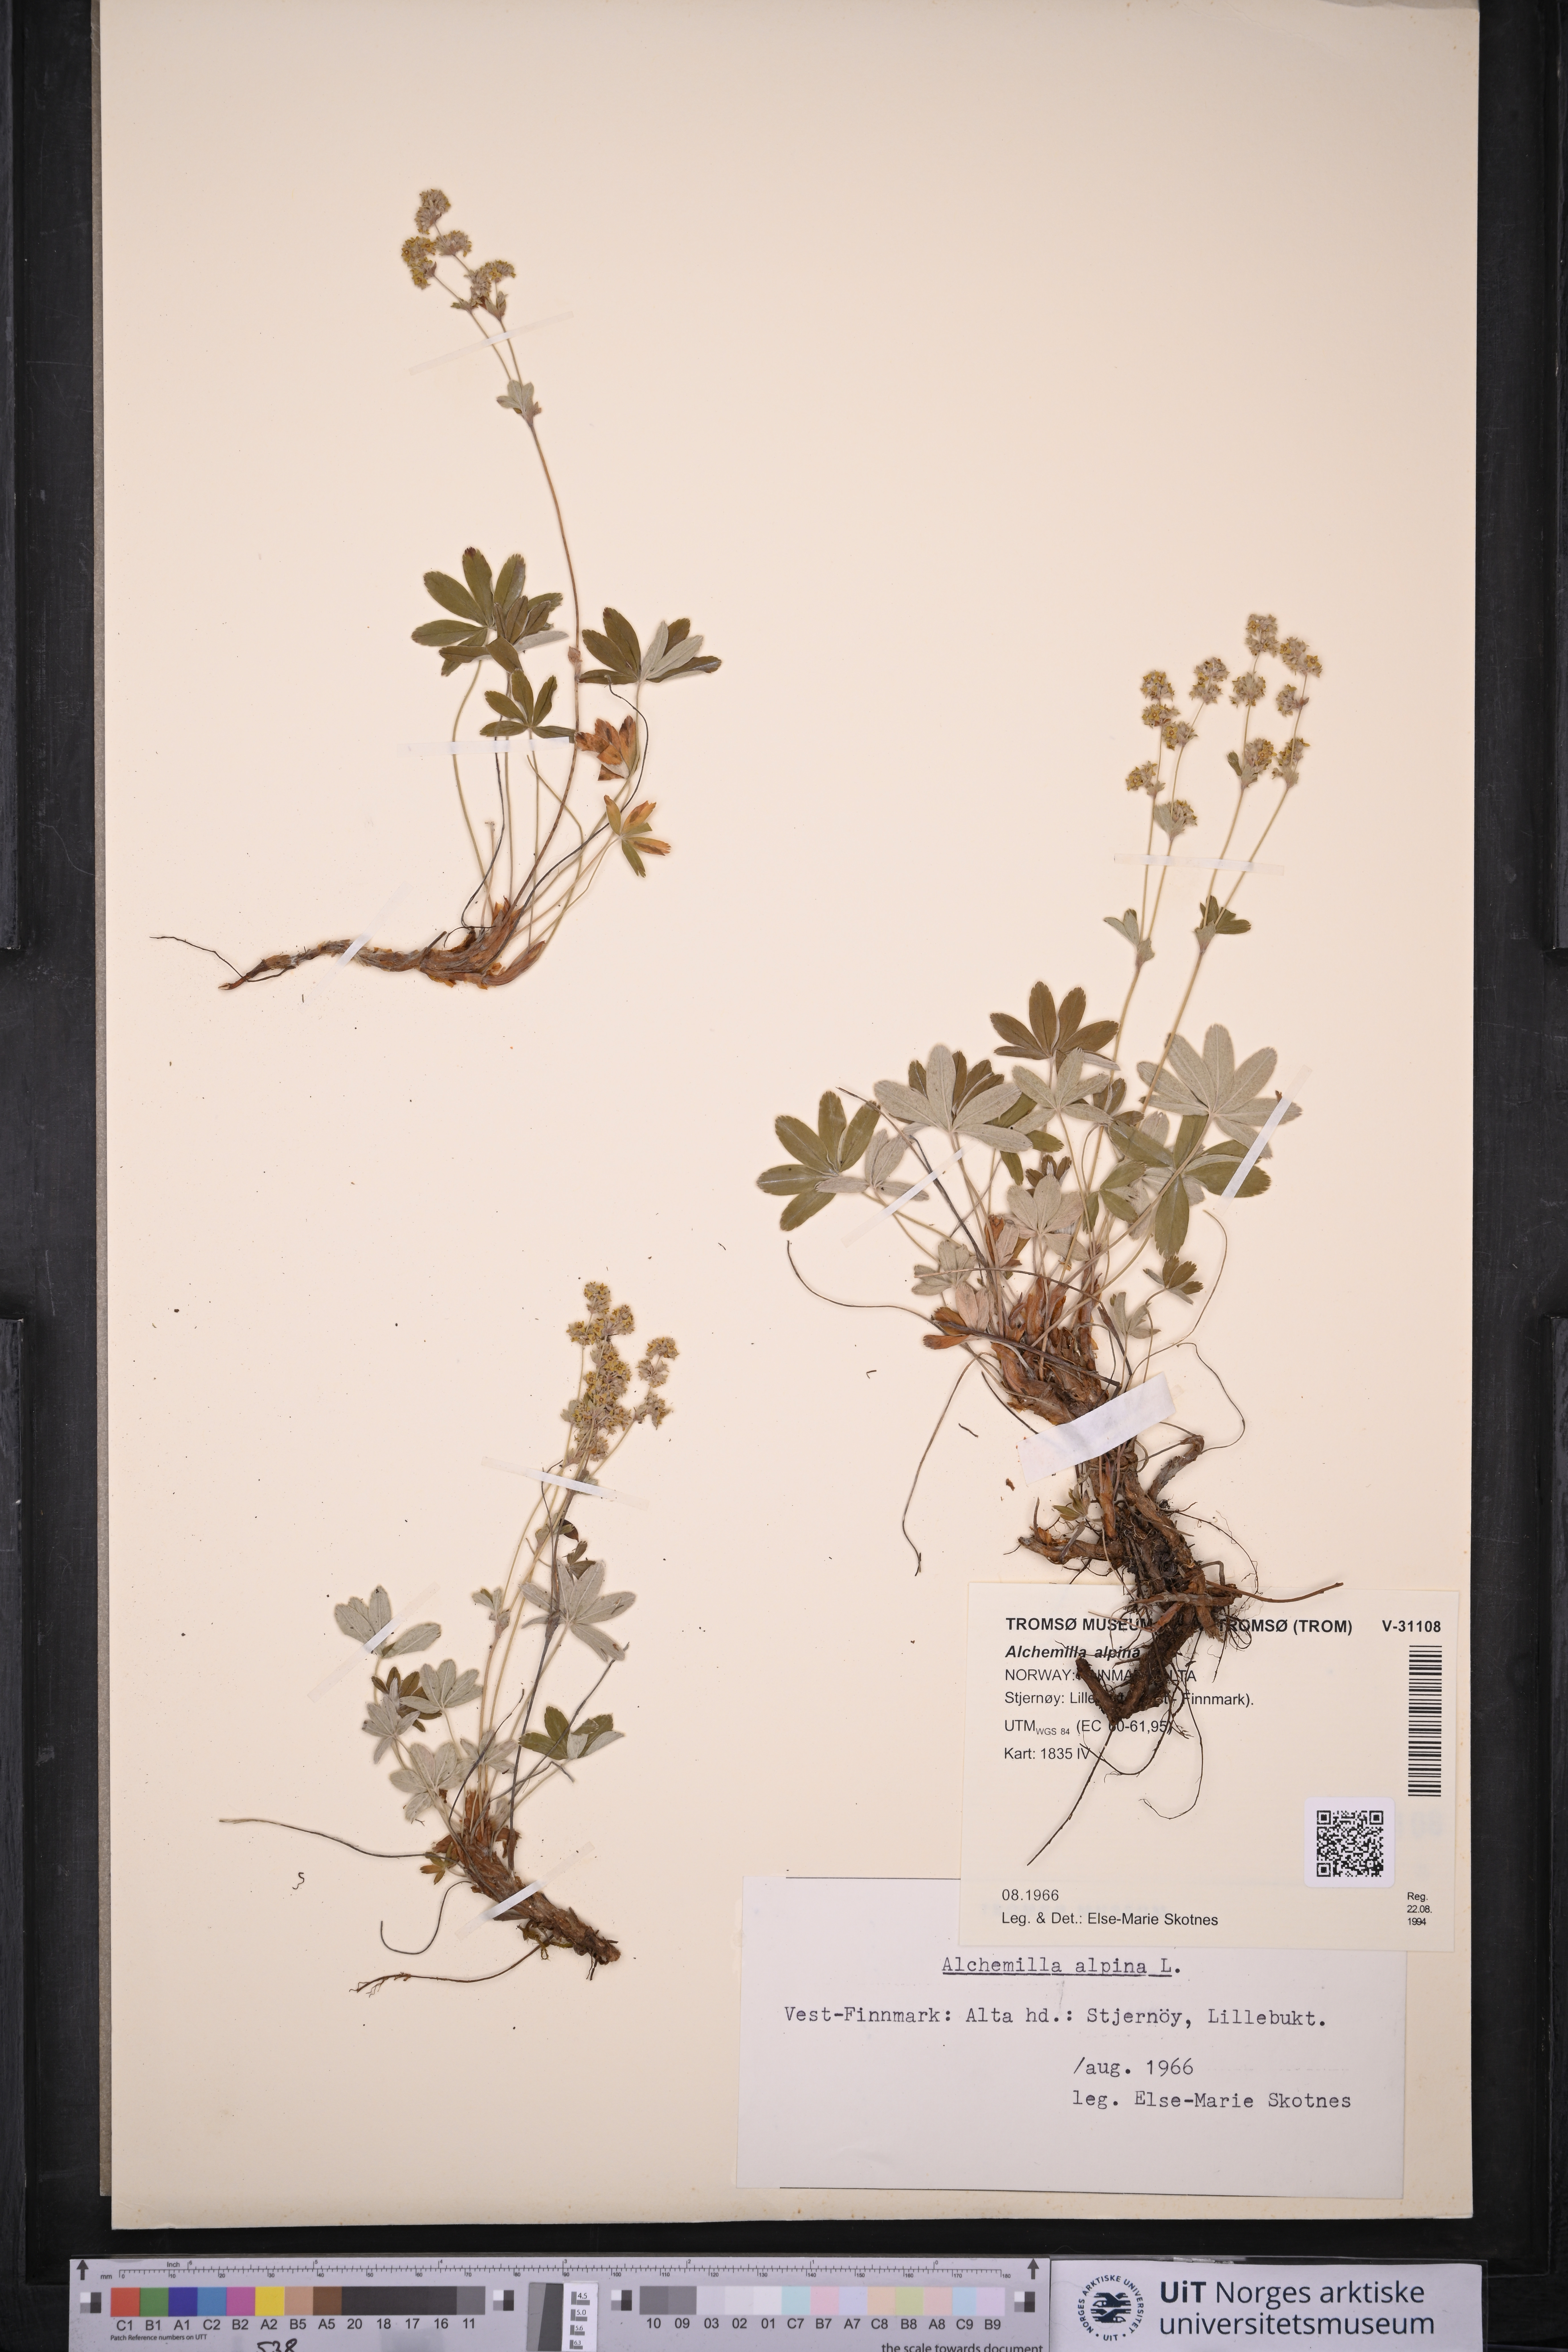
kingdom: Plantae
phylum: Tracheophyta
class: Magnoliopsida
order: Rosales
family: Rosaceae
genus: Alchemilla
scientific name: Alchemilla alpina
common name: Alpine lady's-mantle
